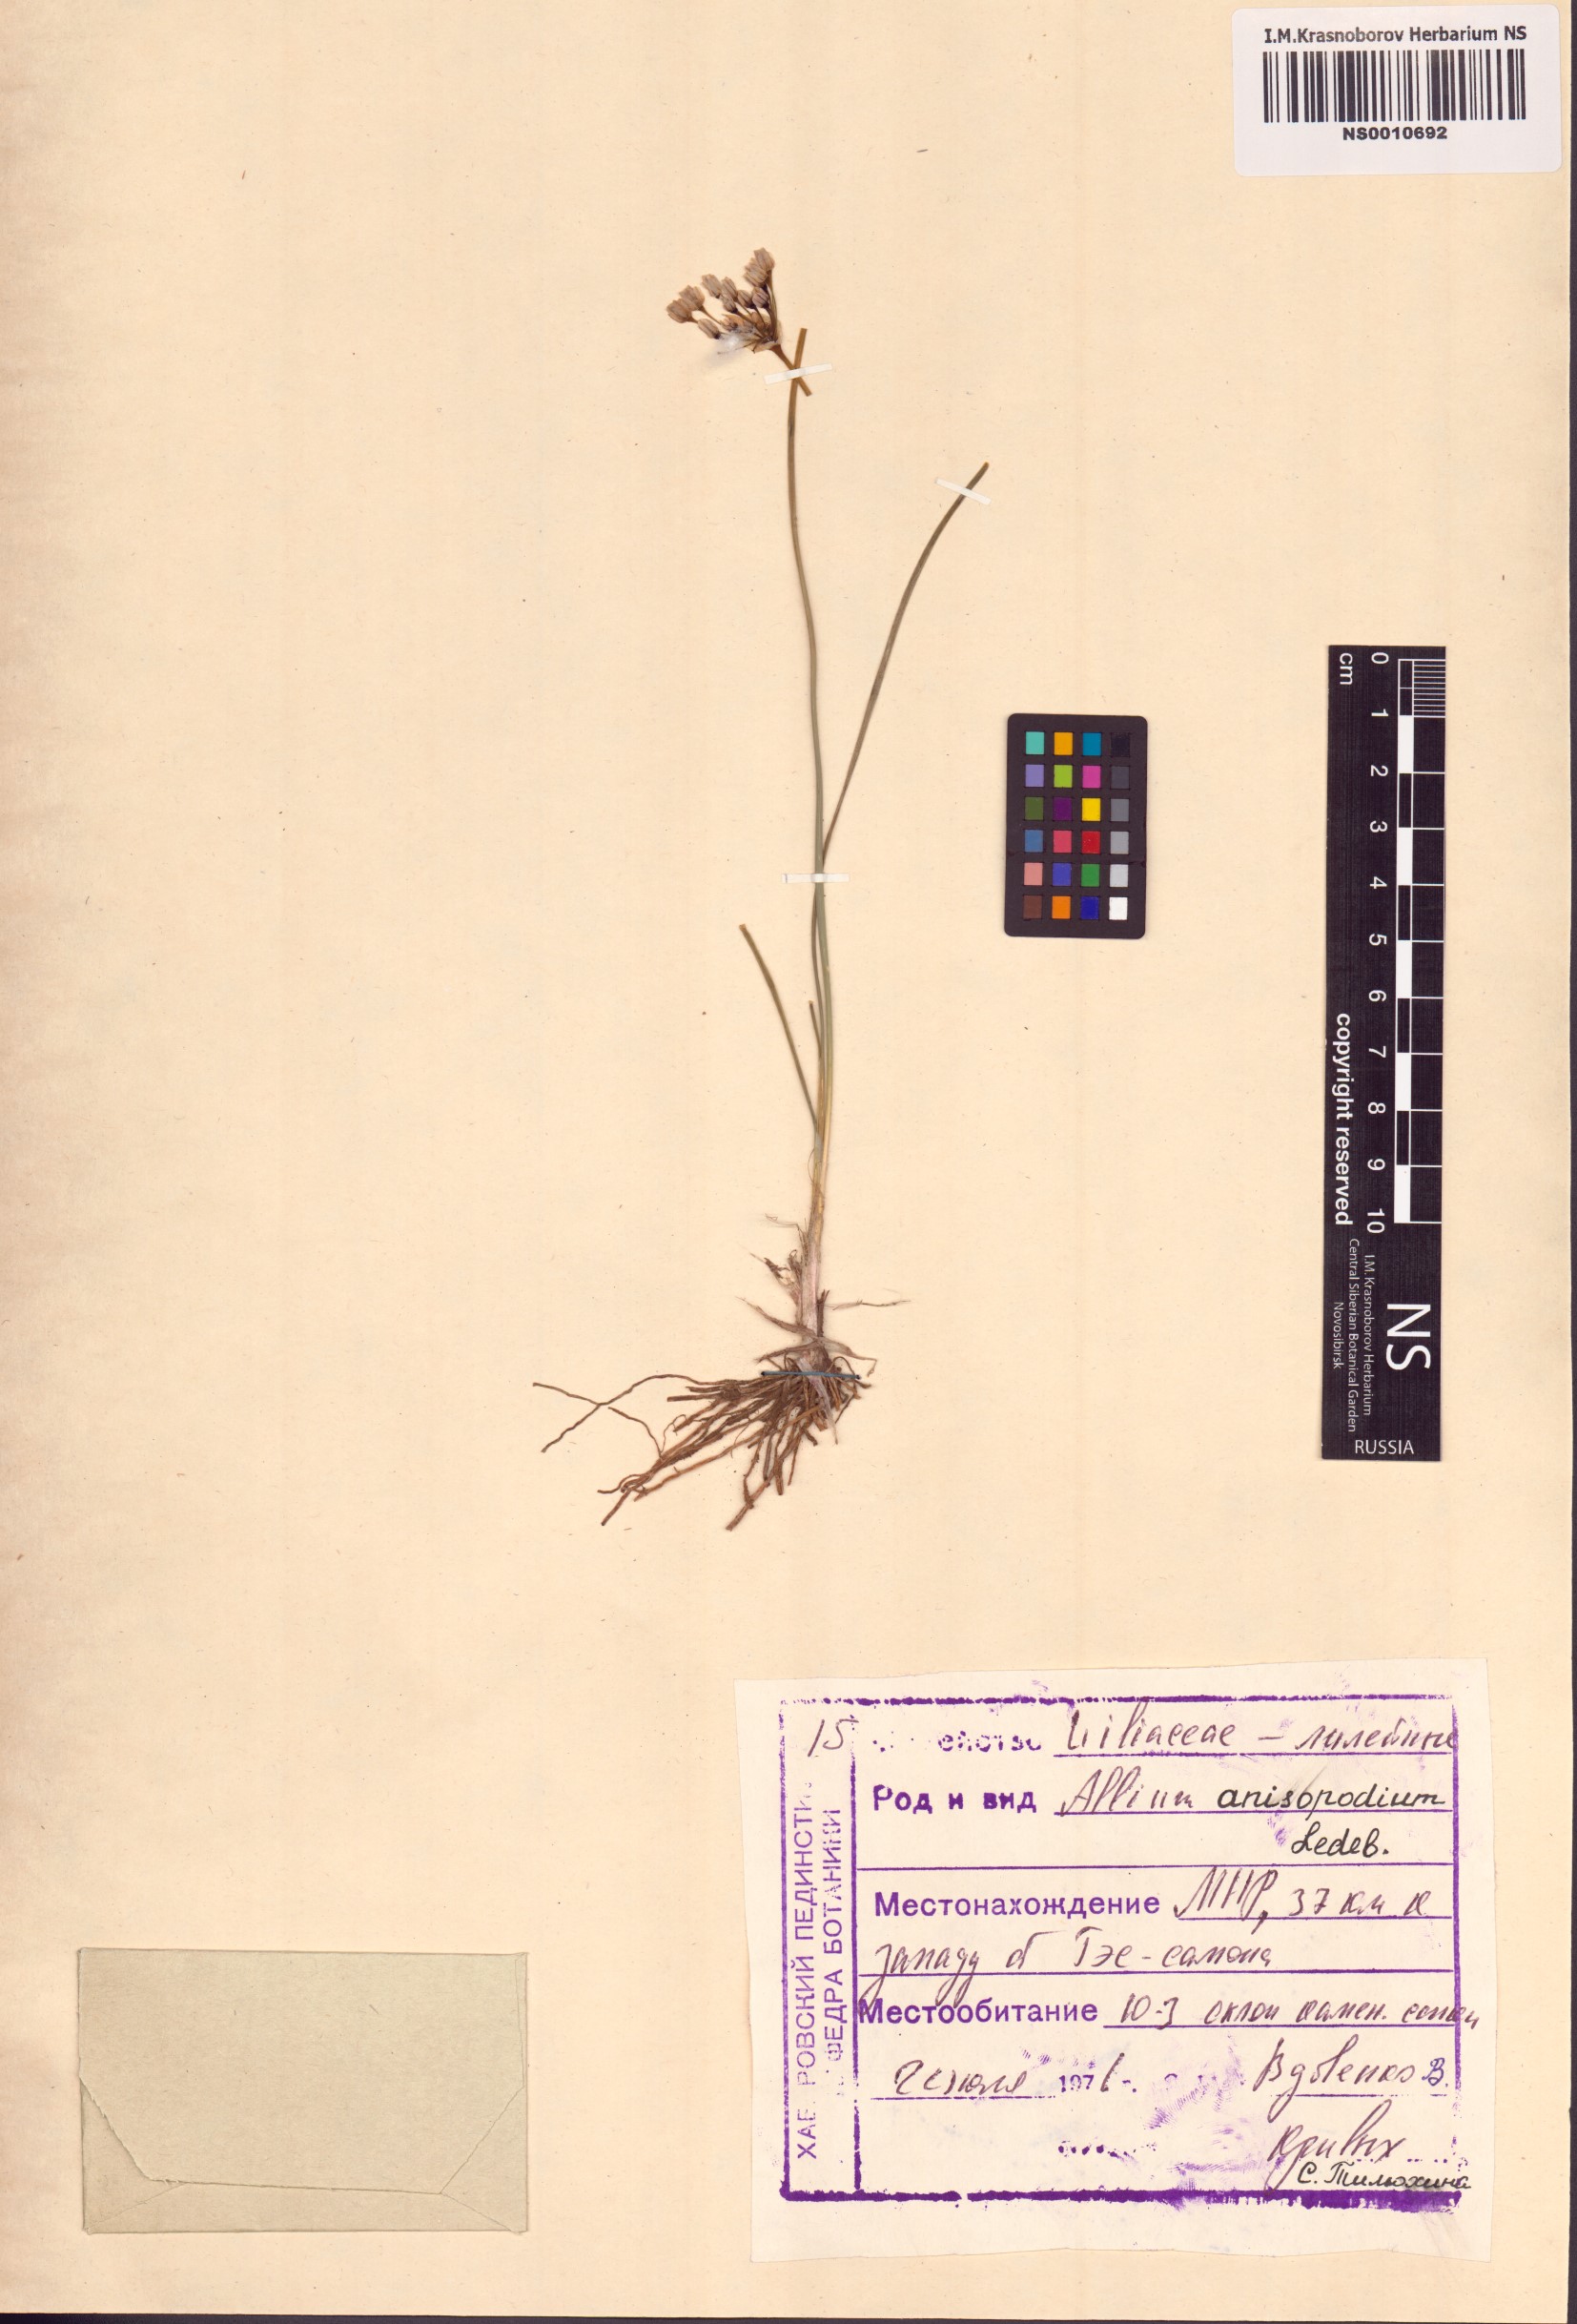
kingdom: Plantae
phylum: Tracheophyta
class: Liliopsida
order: Asparagales
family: Amaryllidaceae
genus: Allium
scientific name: Allium anisopodium
